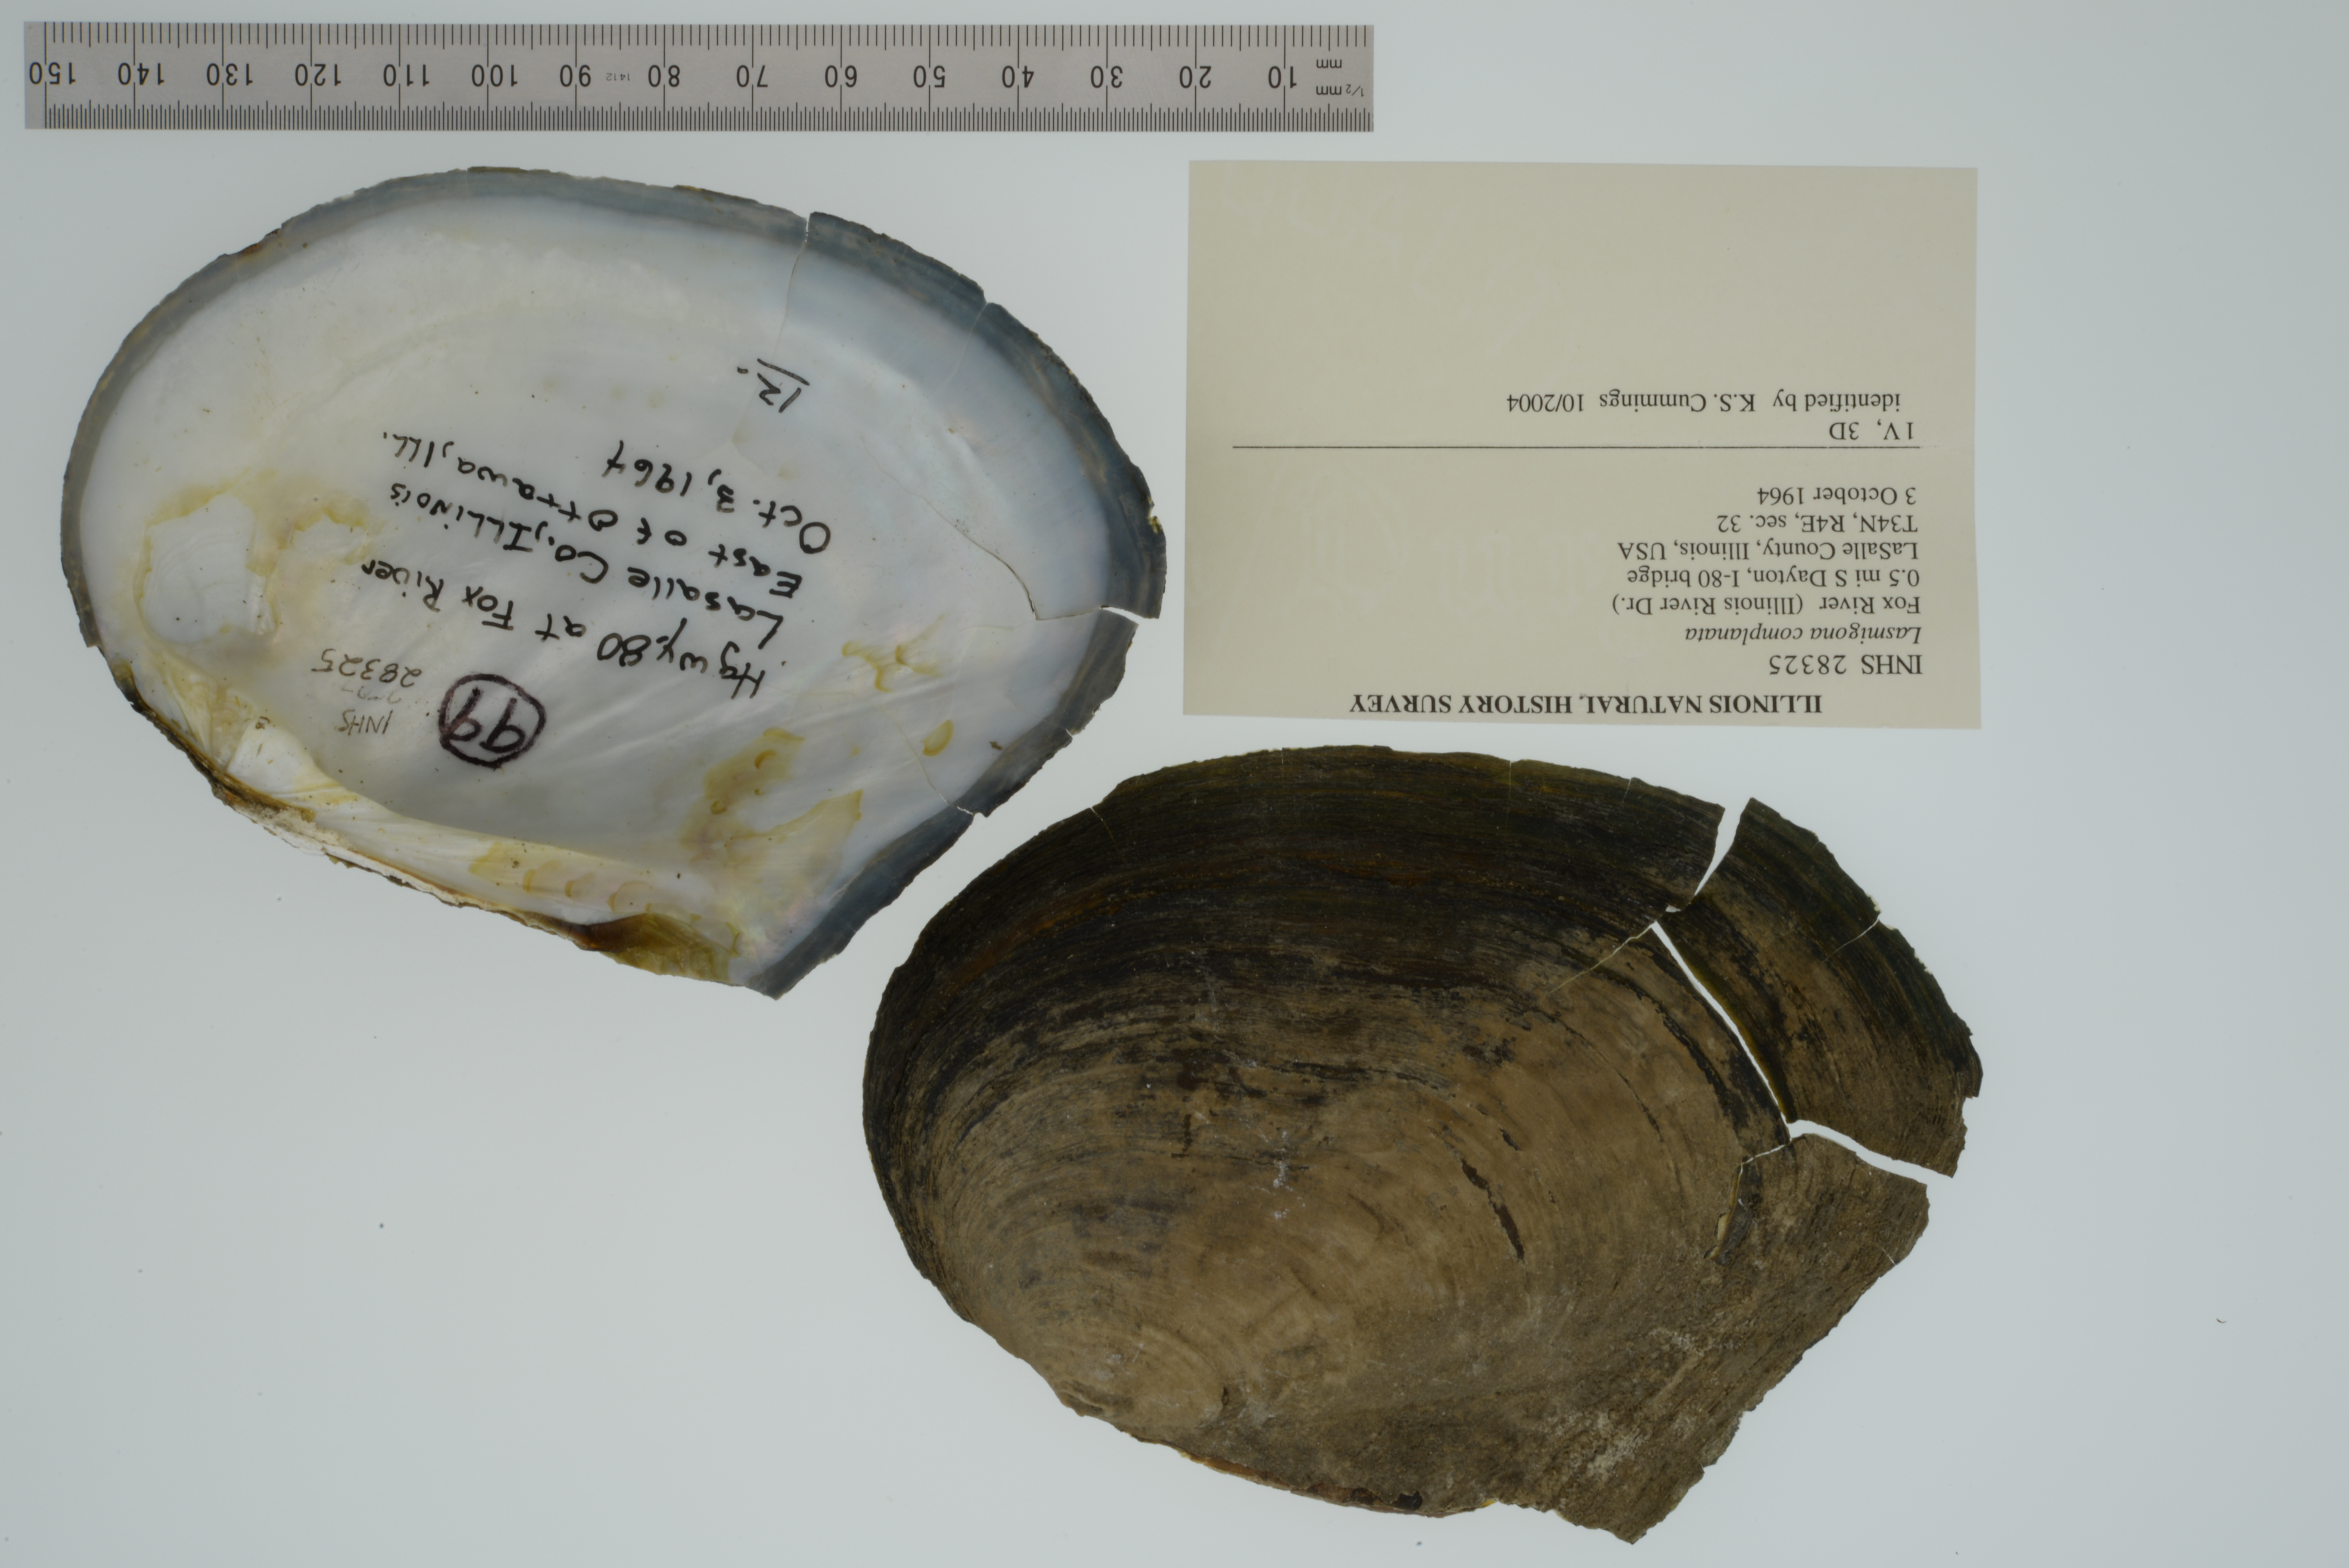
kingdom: Animalia
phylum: Mollusca
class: Bivalvia
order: Unionida
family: Unionidae
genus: Lasmigona
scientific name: Lasmigona complanata
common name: White heelsplitter
